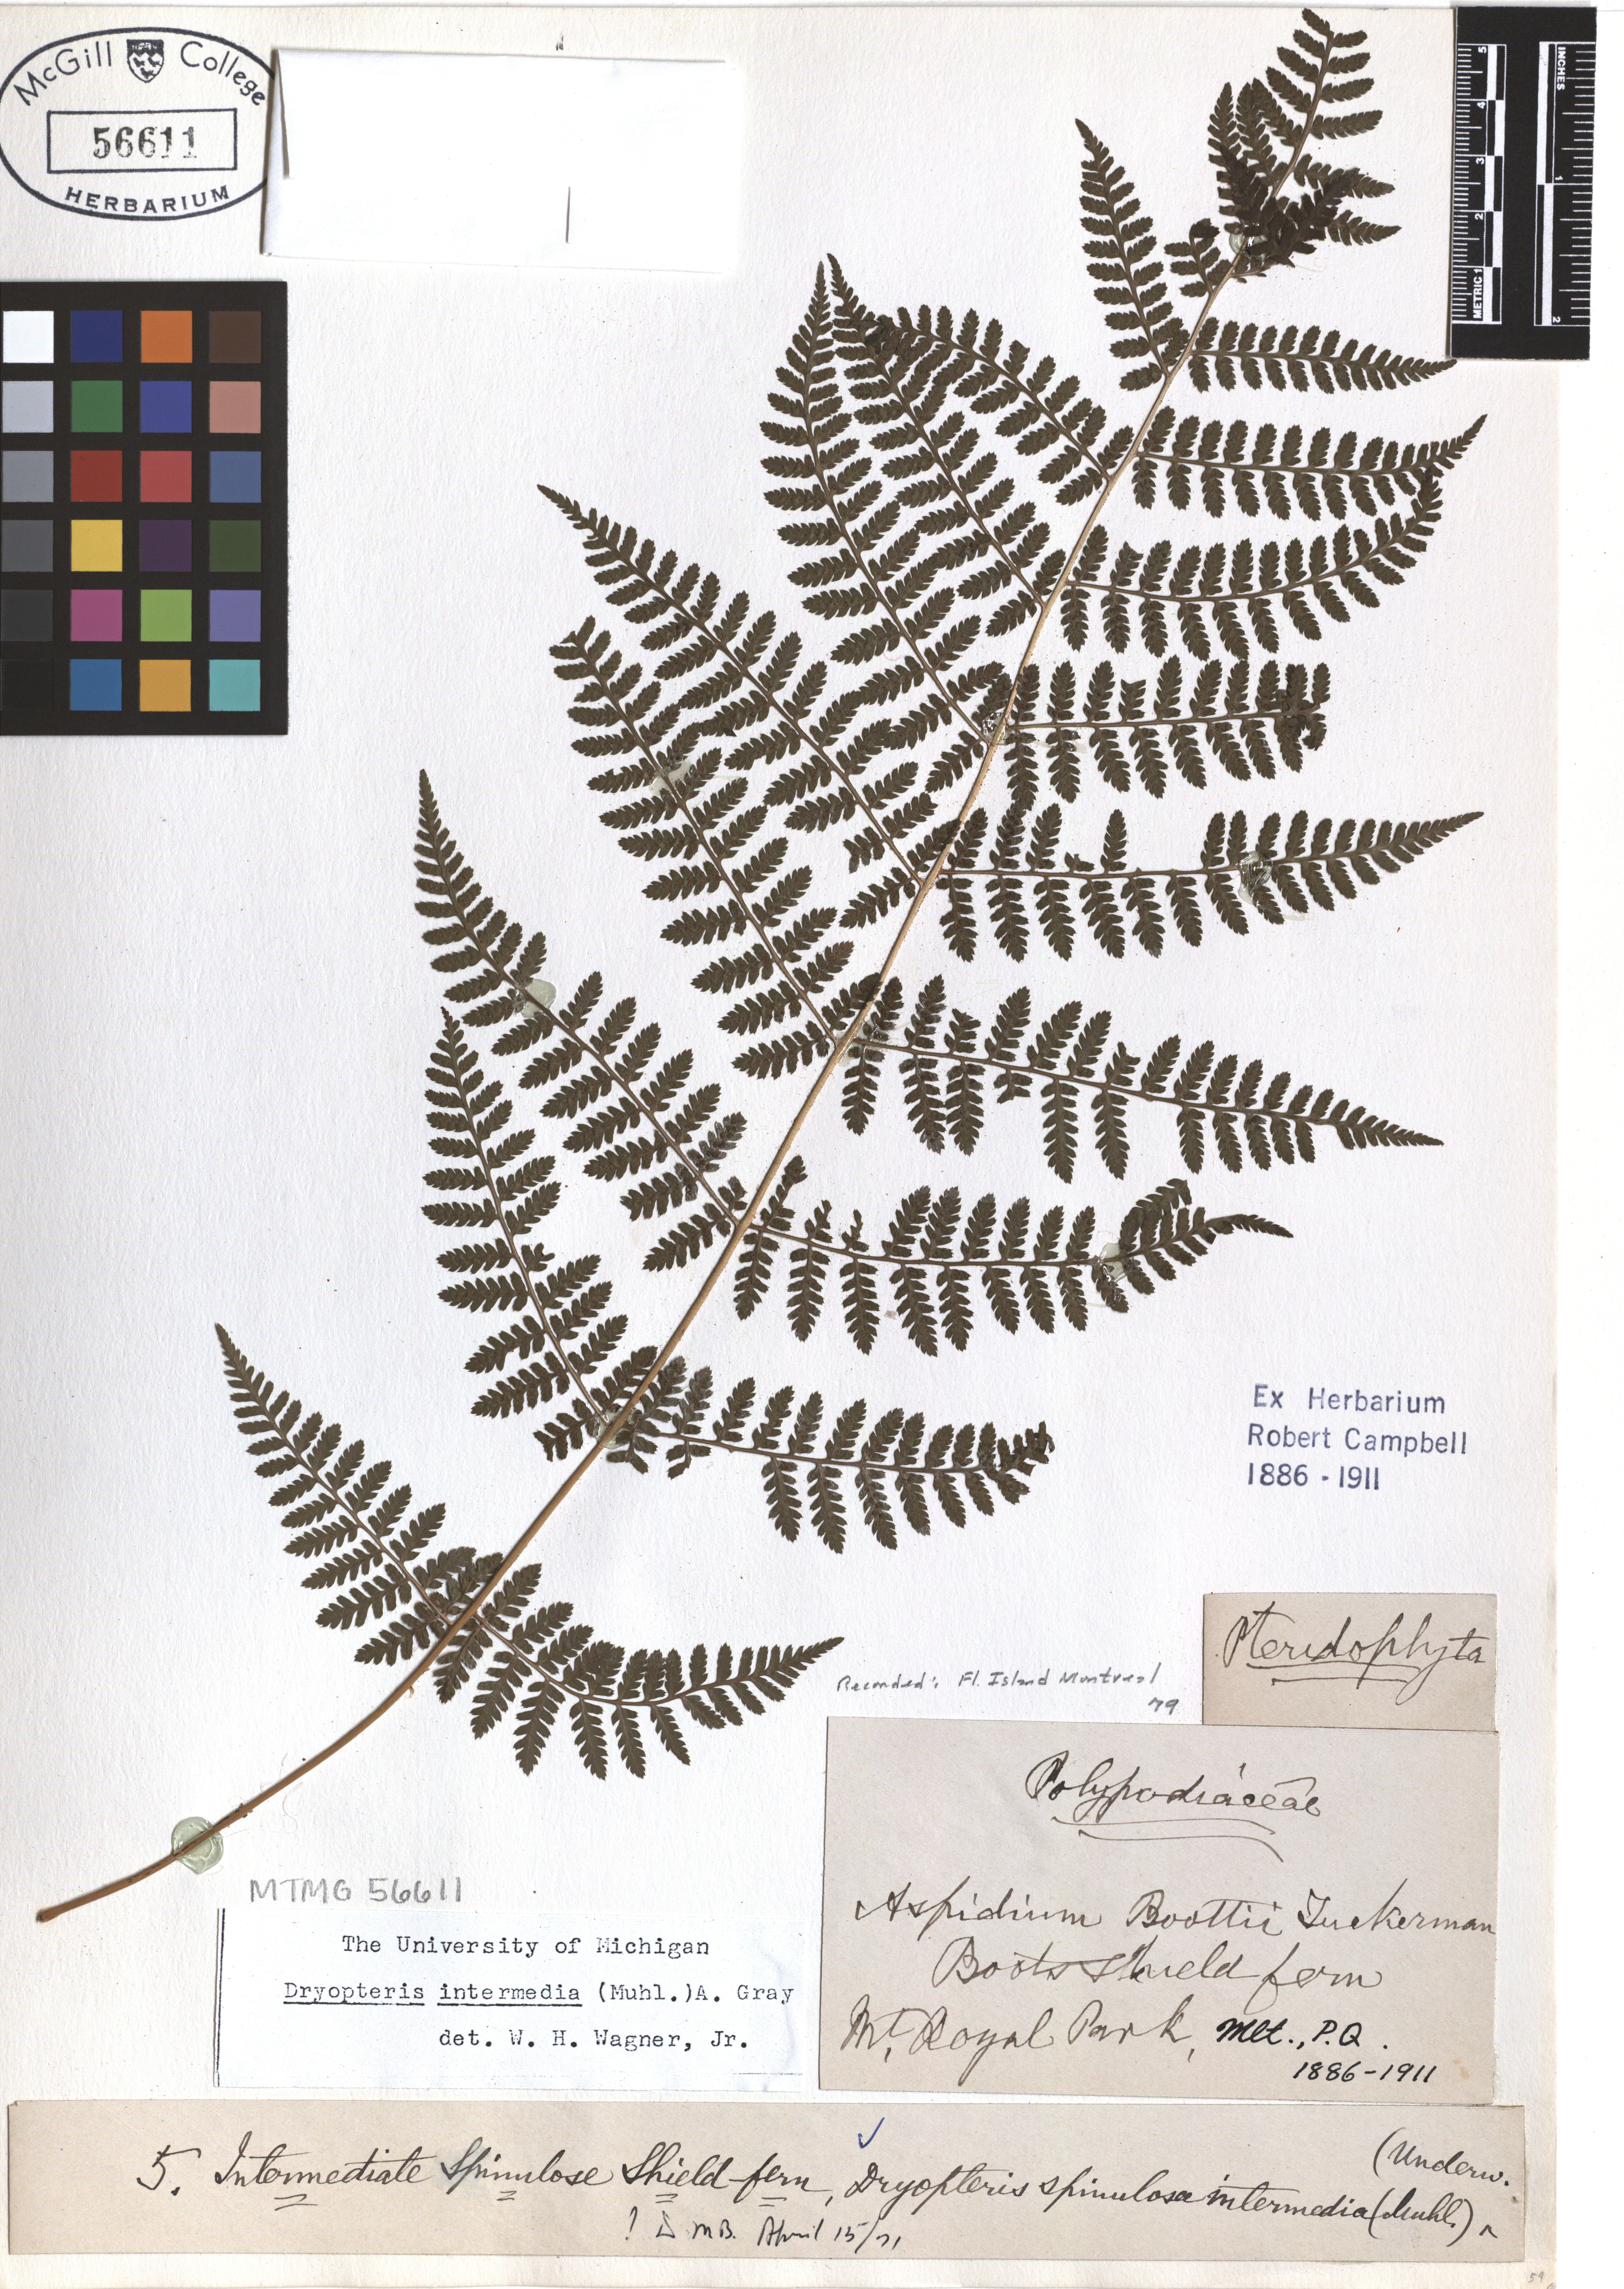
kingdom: Plantae
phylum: Tracheophyta
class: Polypodiopsida
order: Polypodiales
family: Dryopteridaceae
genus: Dryopteris
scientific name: Dryopteris intermedia
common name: Evergreen wood fern
